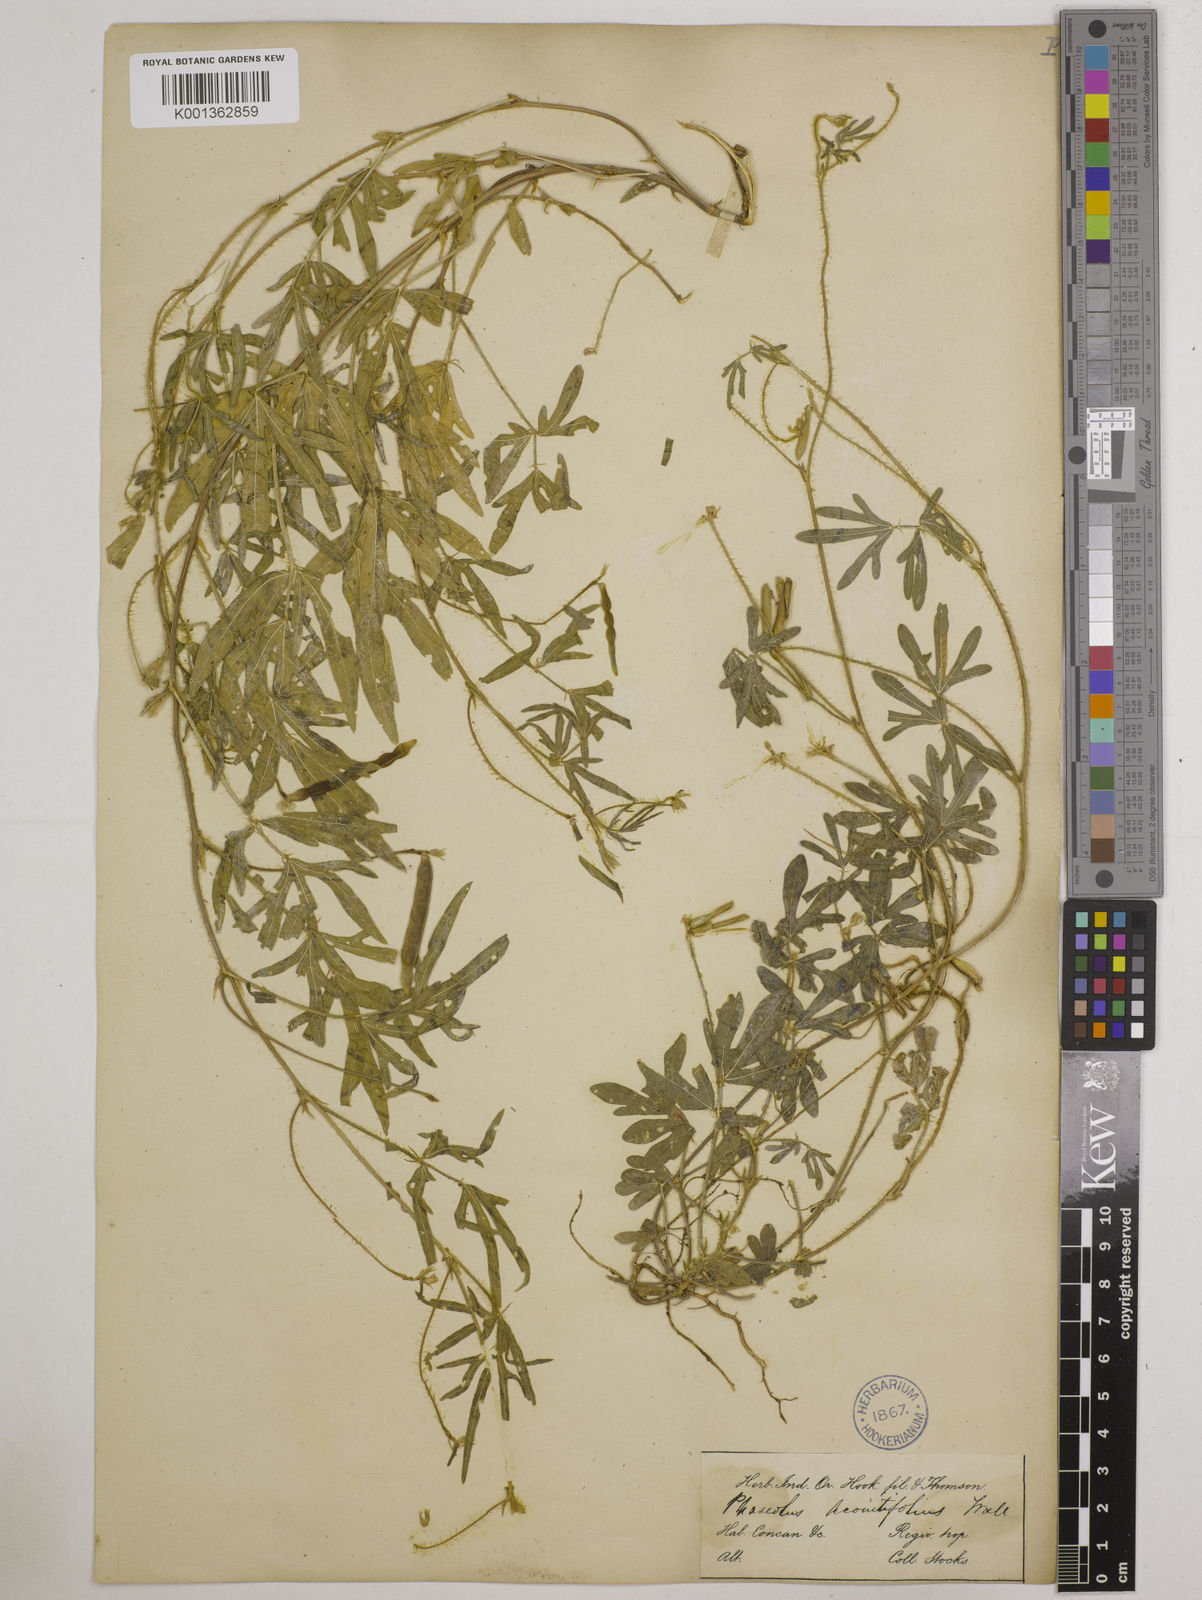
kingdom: Plantae
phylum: Tracheophyta
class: Magnoliopsida
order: Fabales
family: Fabaceae
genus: Vigna
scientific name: Vigna aconitifolia
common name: Dew bean
